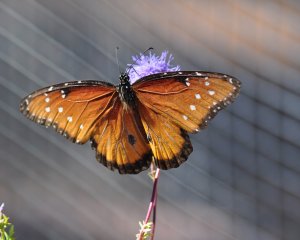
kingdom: Animalia
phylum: Arthropoda
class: Insecta
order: Lepidoptera
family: Nymphalidae
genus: Danaus
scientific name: Danaus gilippus
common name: Queen
